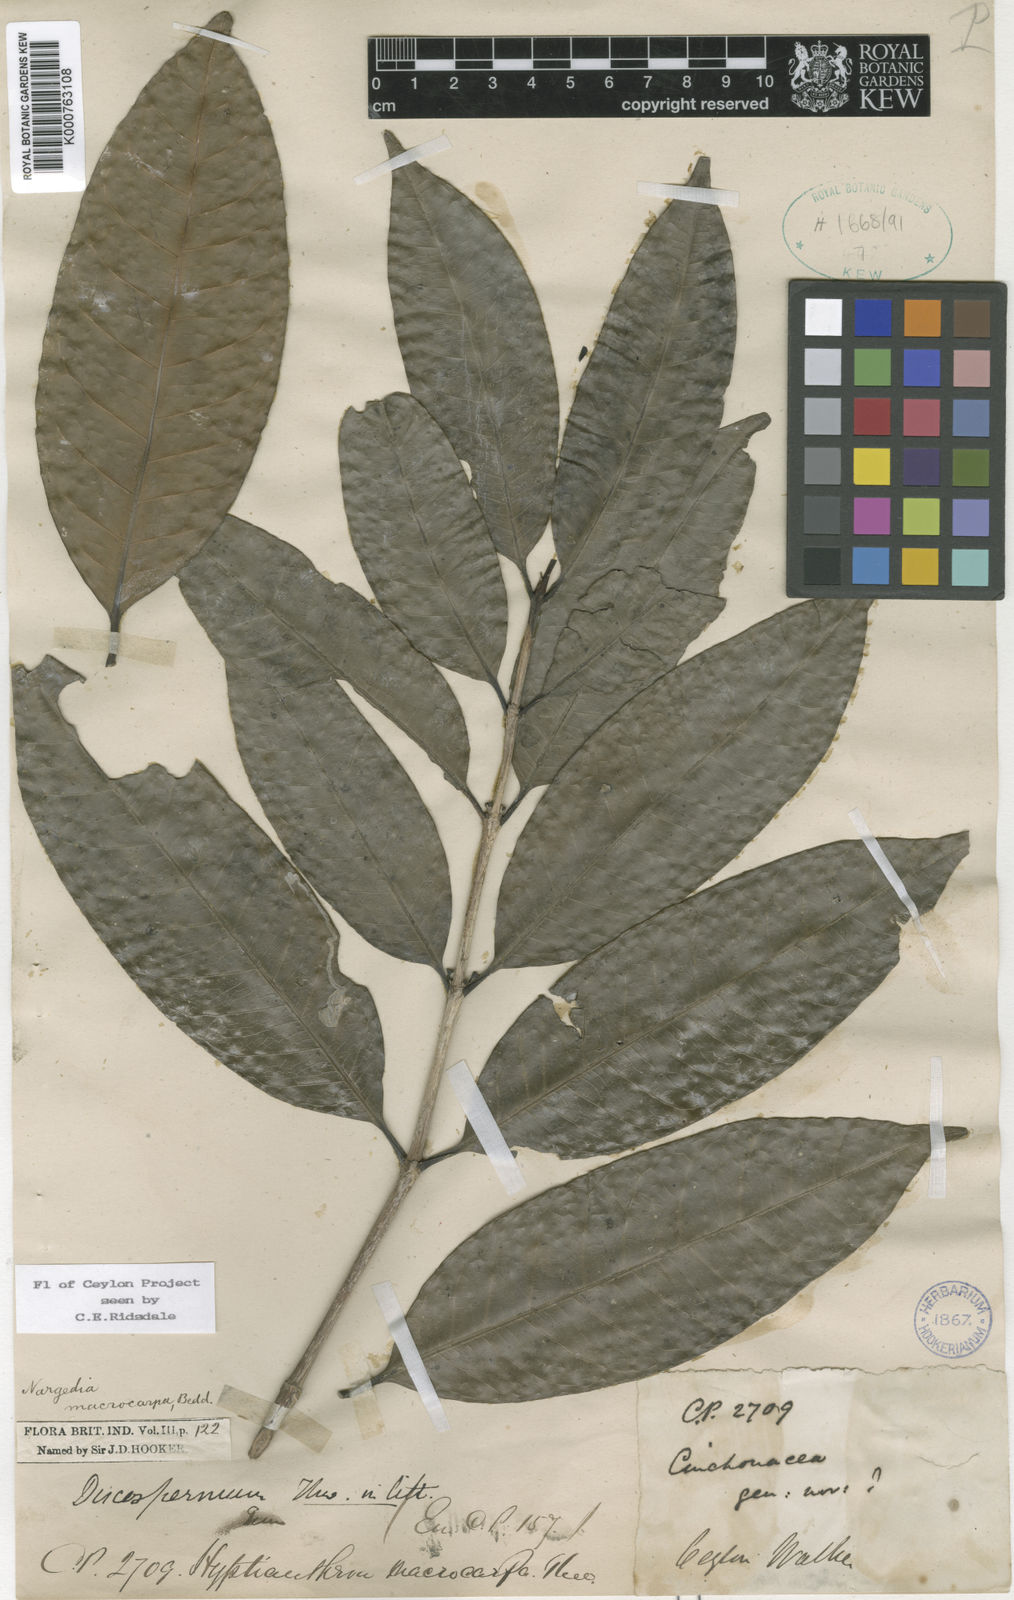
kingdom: Plantae
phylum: Tracheophyta
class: Magnoliopsida
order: Gentianales
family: Rubiaceae
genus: Nargedia
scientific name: Nargedia macrocarpa
